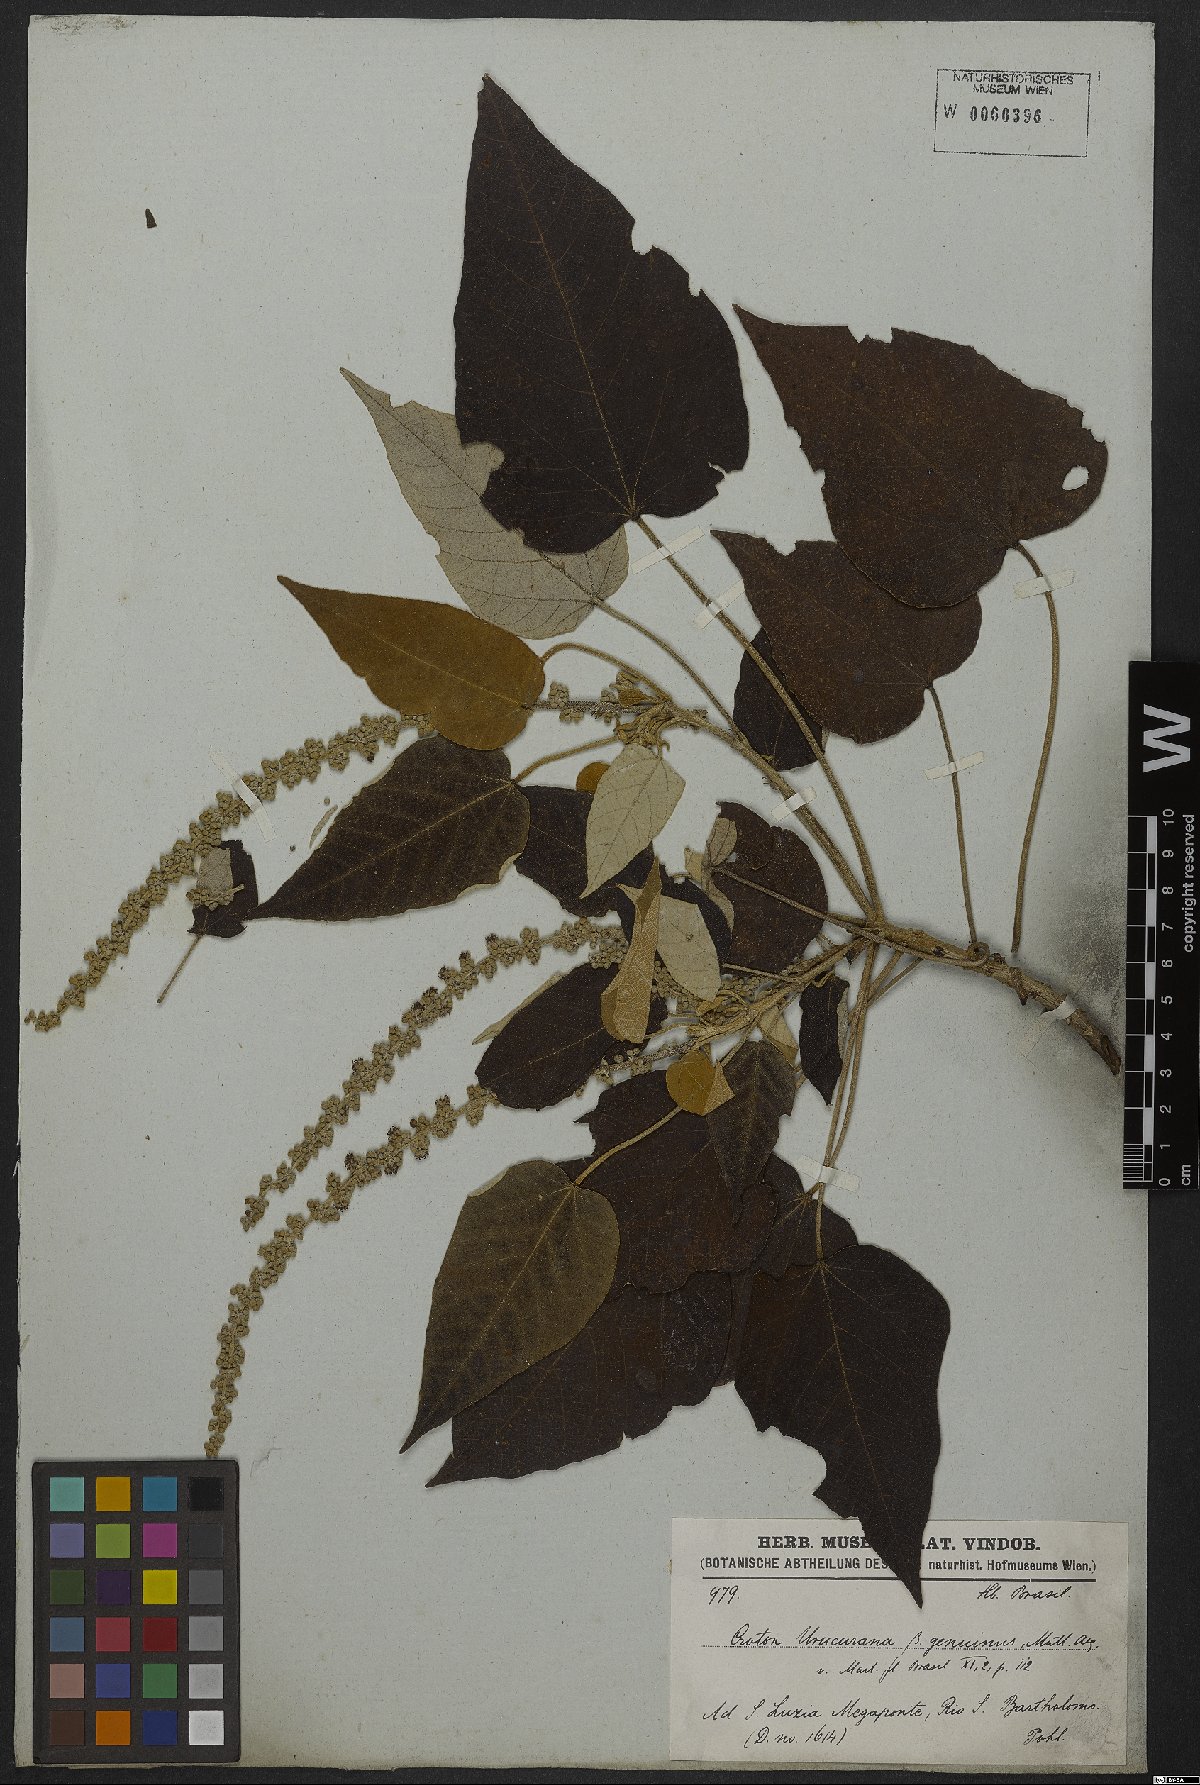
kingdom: Plantae
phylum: Tracheophyta
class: Magnoliopsida
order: Malpighiales
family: Euphorbiaceae
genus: Croton
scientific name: Croton urucurana
